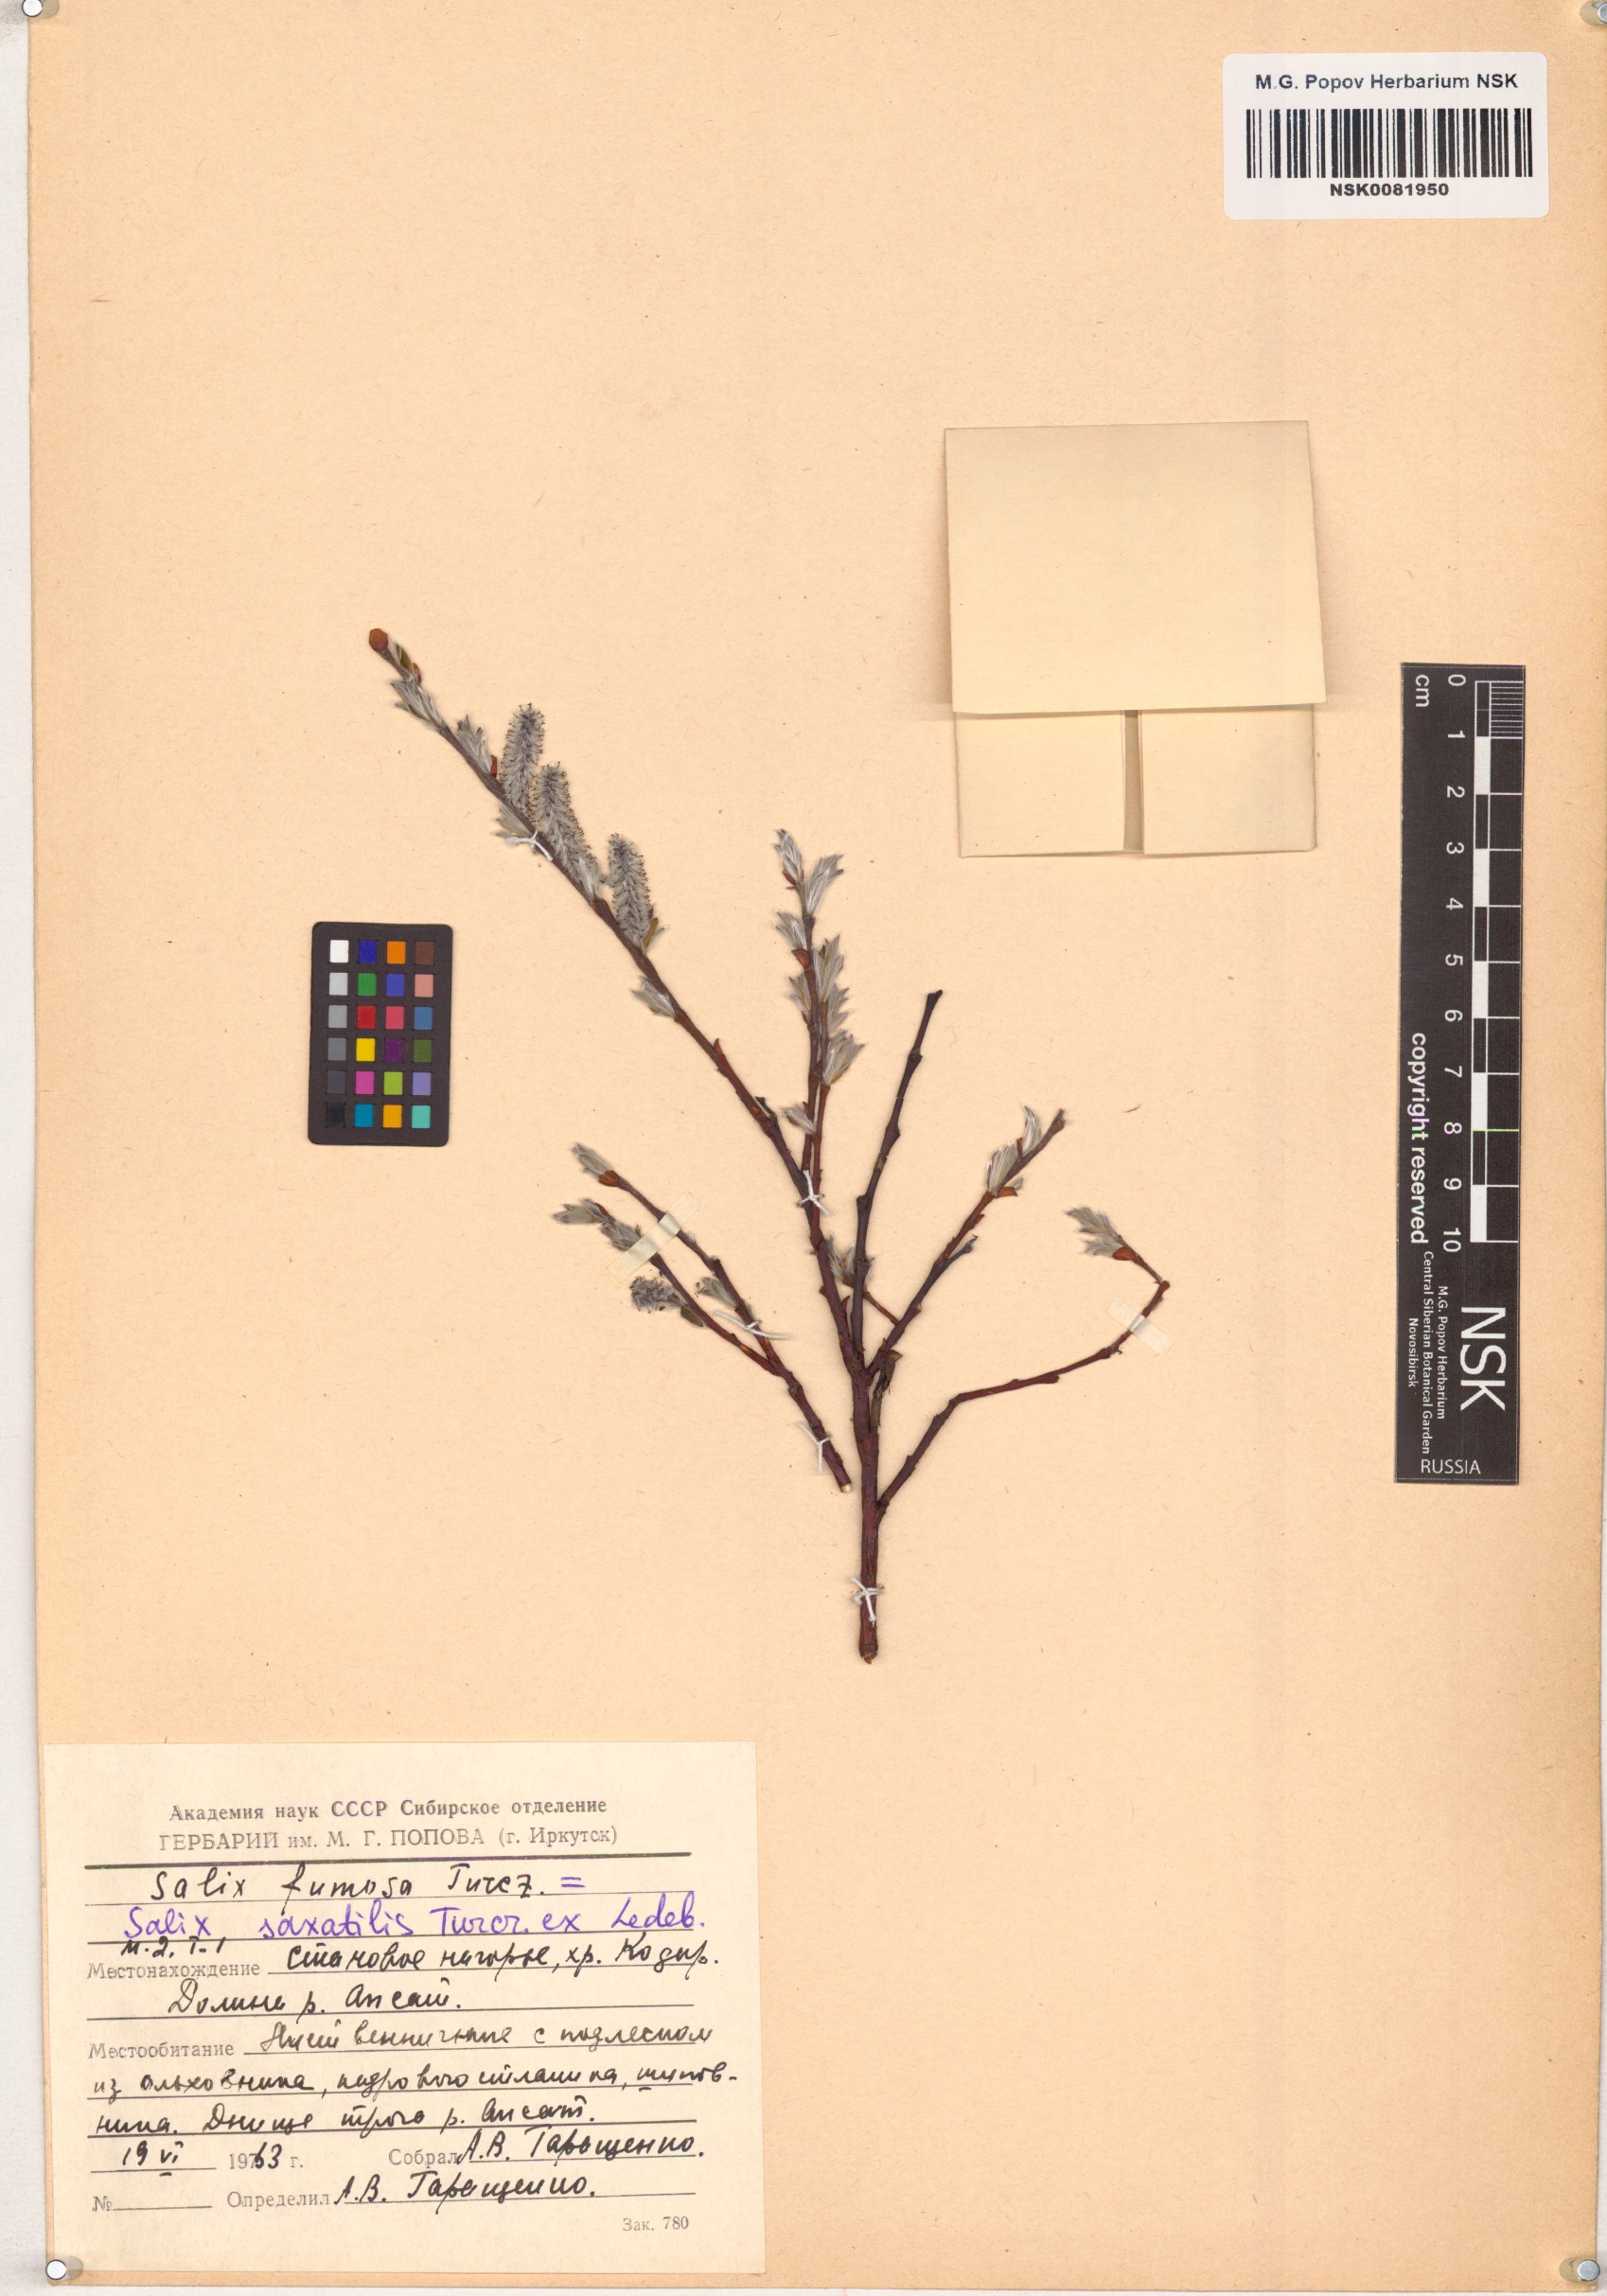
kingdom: Plantae
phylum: Tracheophyta
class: Magnoliopsida
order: Malpighiales
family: Salicaceae
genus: Salix
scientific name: Salix saxatilis
